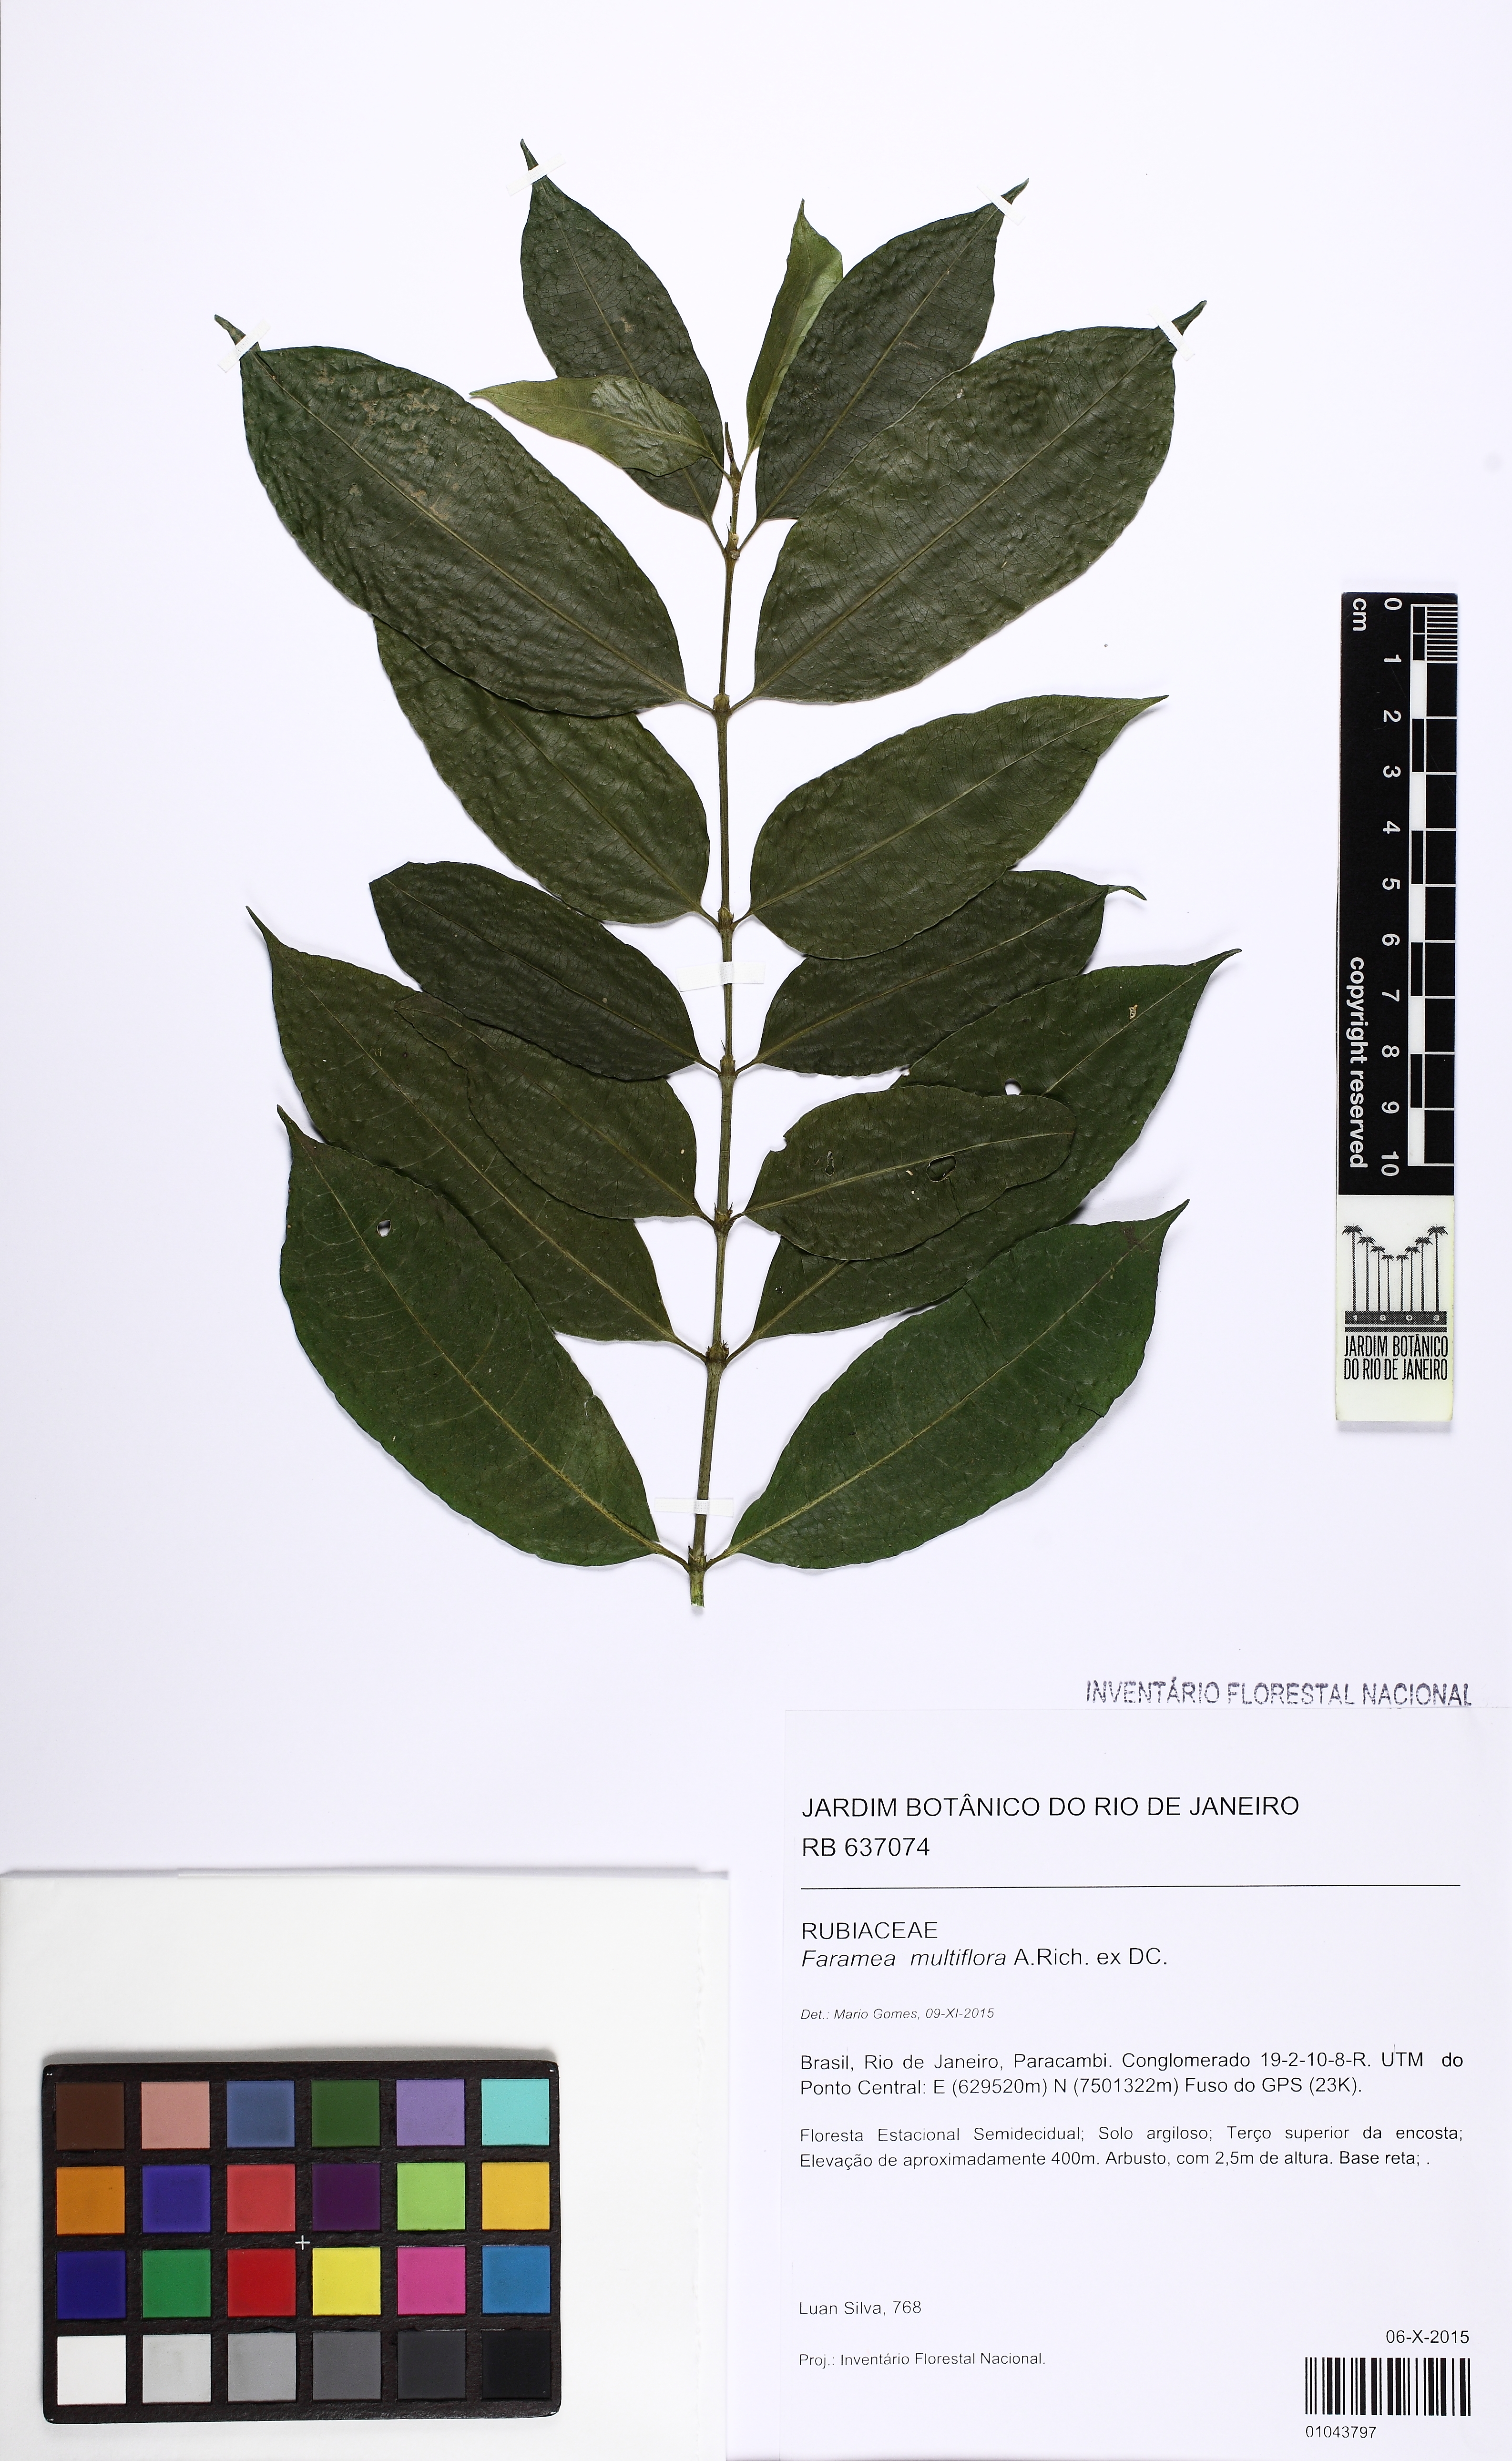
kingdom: Plantae
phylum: Tracheophyta
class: Magnoliopsida
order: Gentianales
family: Rubiaceae
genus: Faramea
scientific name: Faramea multiflora
